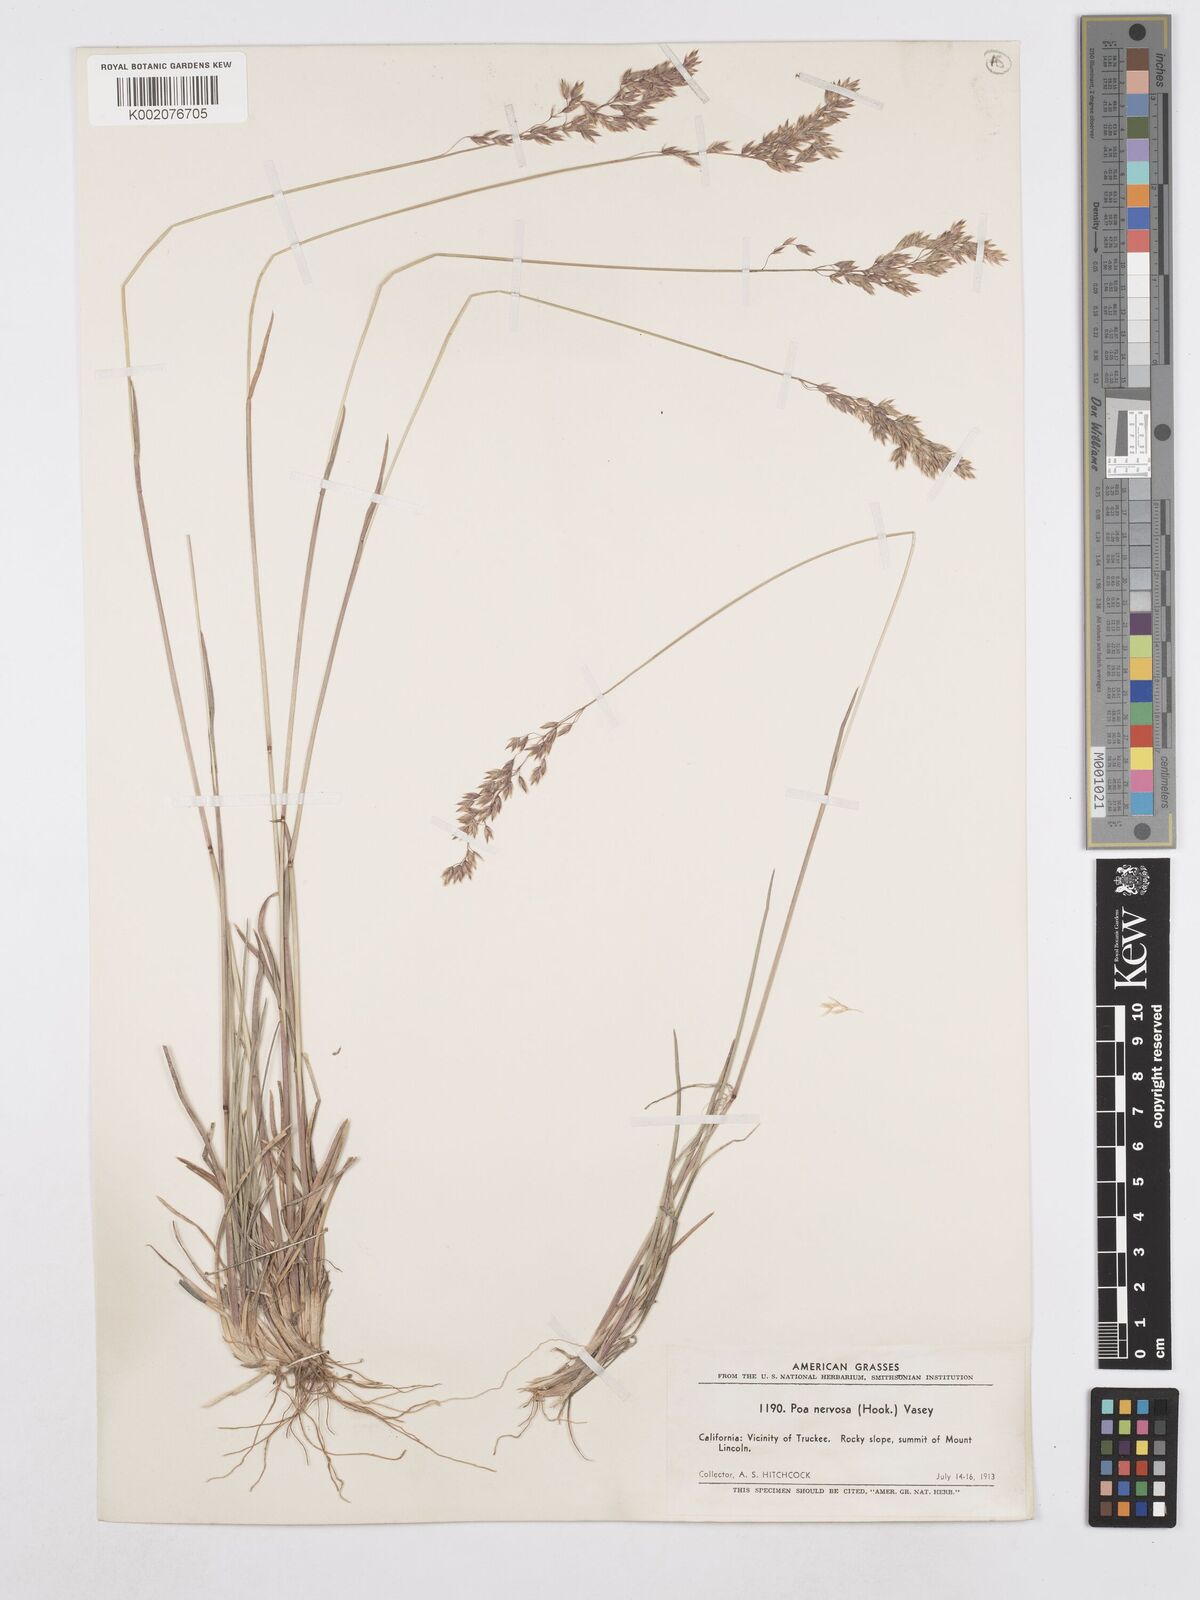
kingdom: Plantae
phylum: Tracheophyta
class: Liliopsida
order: Poales
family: Poaceae
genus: Poa
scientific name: Poa nervosa
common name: Hooker's bluegrass
